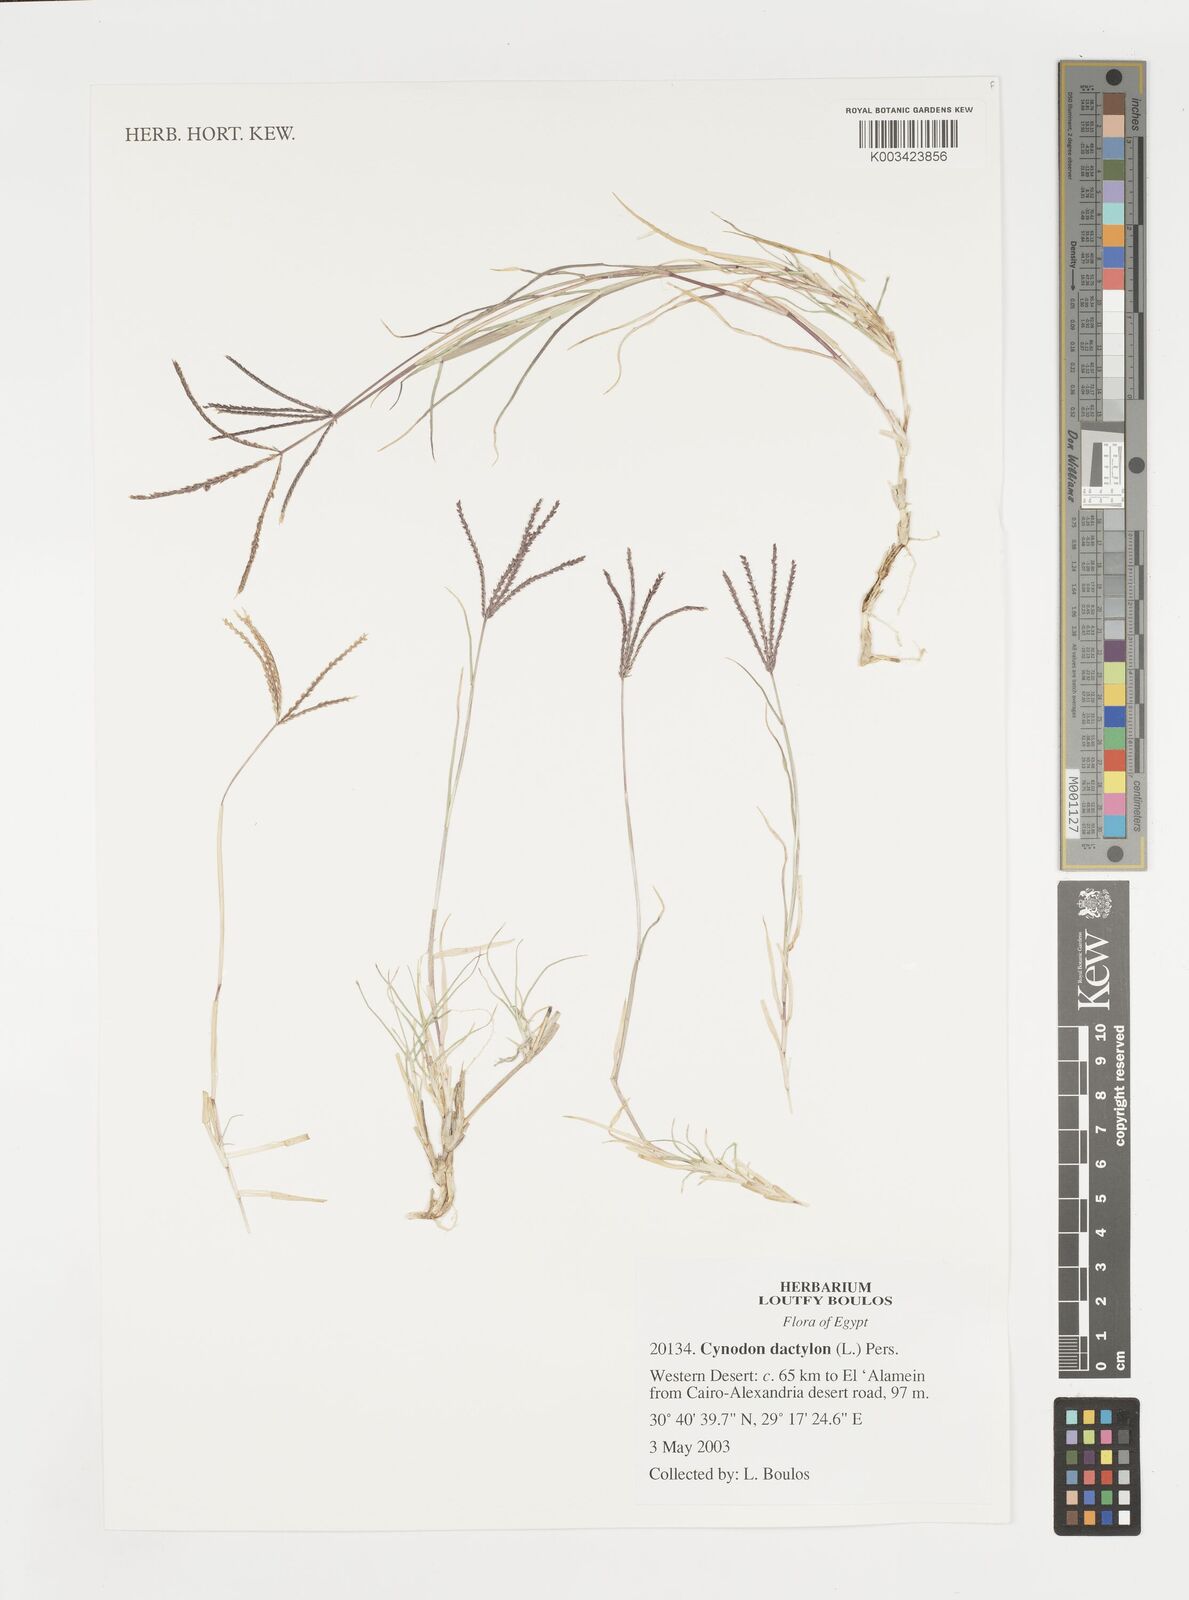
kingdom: Plantae
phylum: Tracheophyta
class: Liliopsida
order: Poales
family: Poaceae
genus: Cynodon
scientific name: Cynodon dactylon
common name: Bermuda grass
